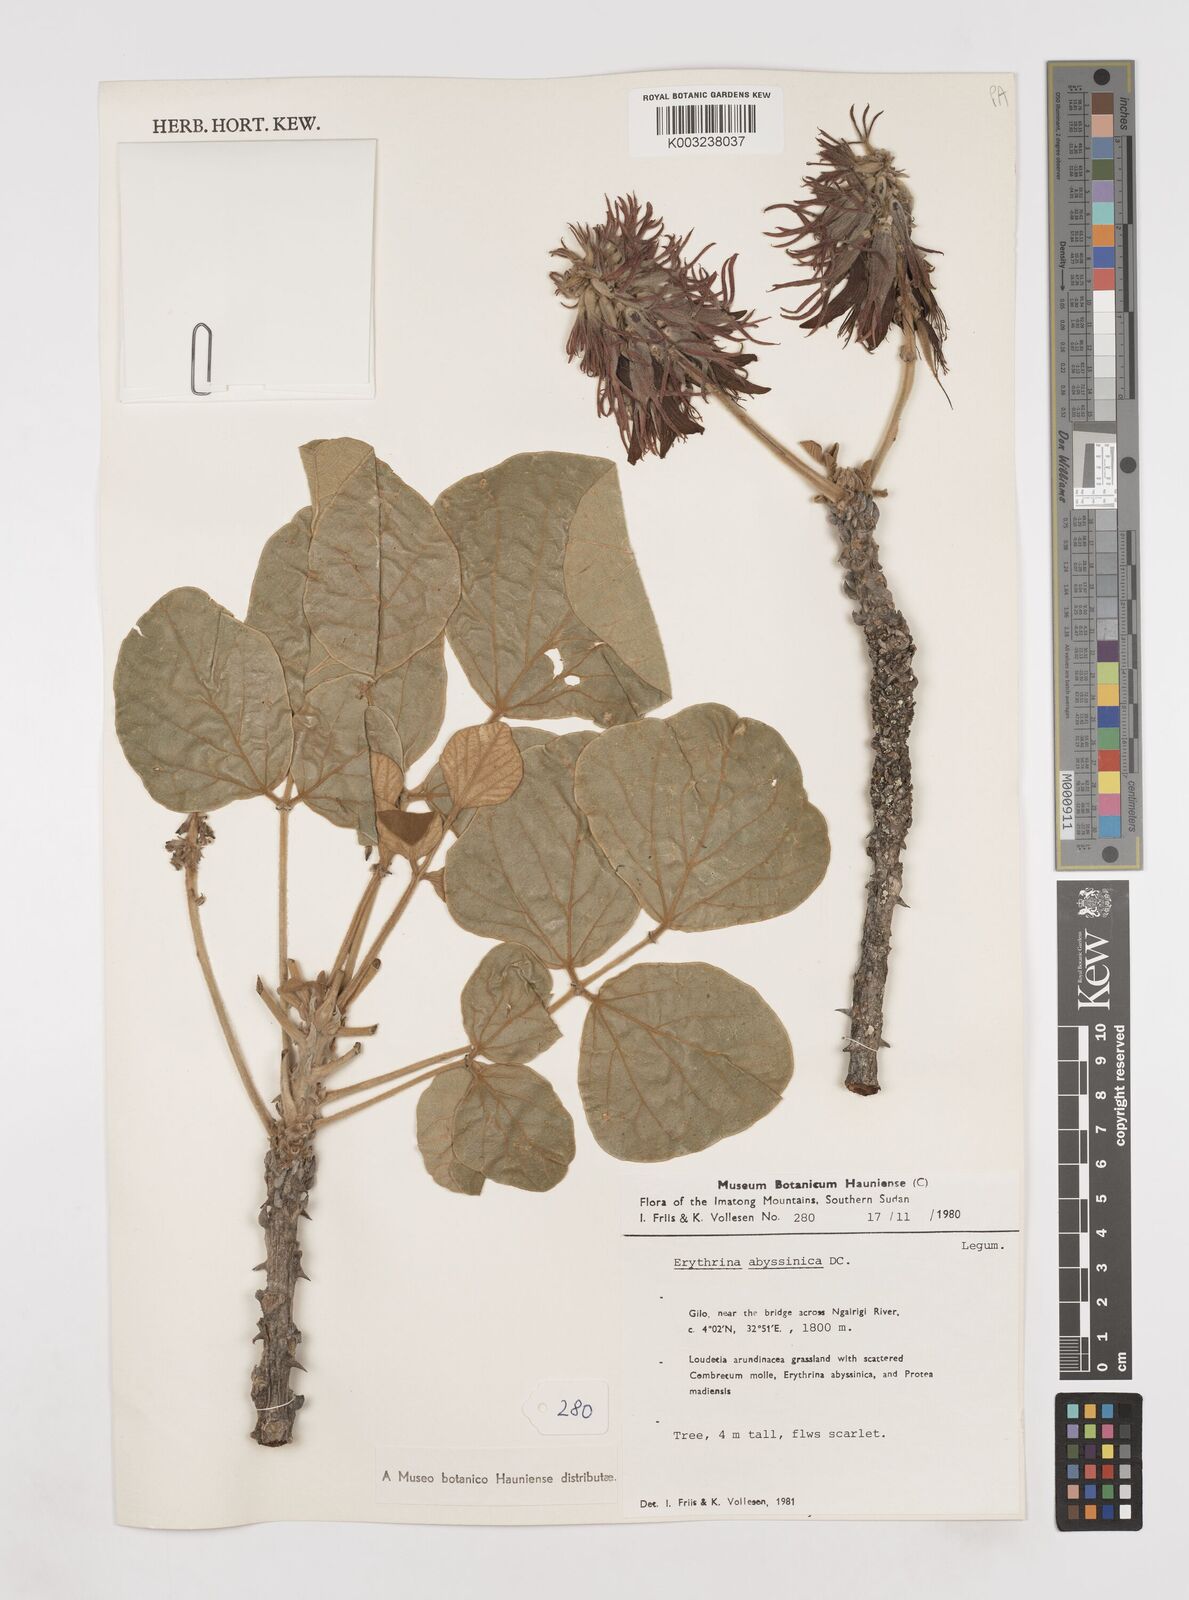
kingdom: Plantae
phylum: Tracheophyta
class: Magnoliopsida
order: Fabales
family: Fabaceae
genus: Erythrina
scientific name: Erythrina abyssinica
